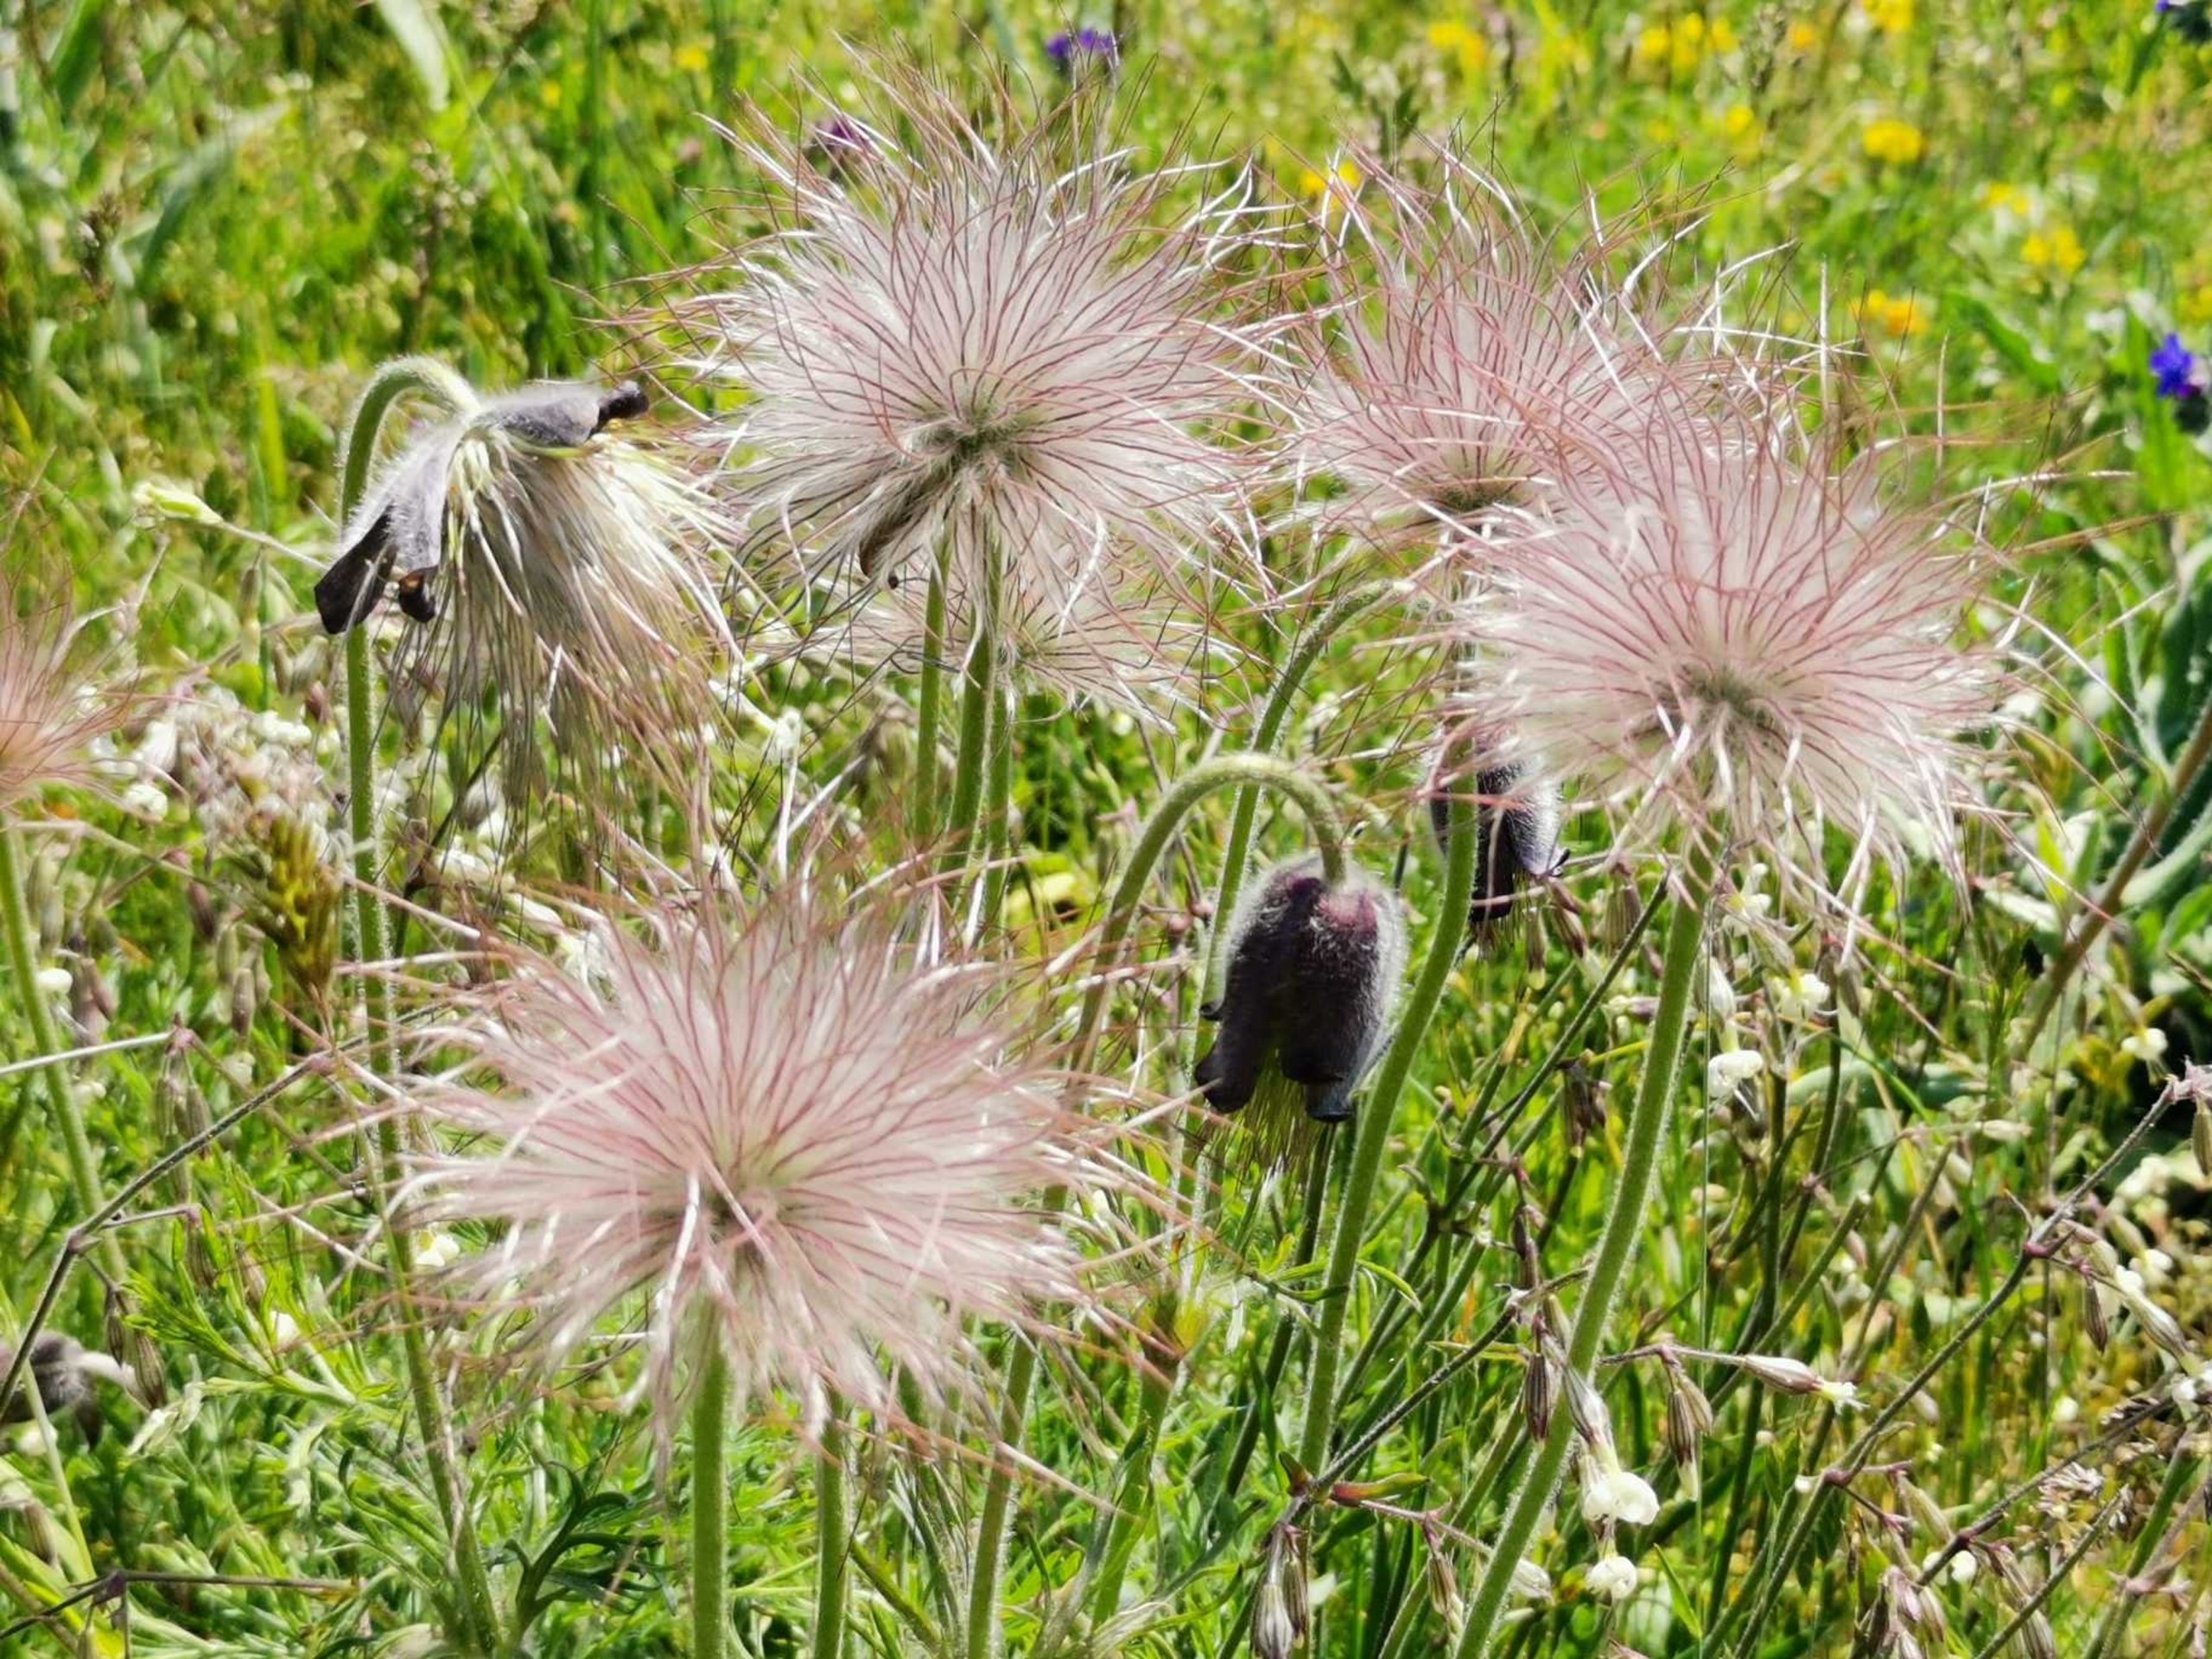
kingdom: Plantae
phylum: Tracheophyta
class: Magnoliopsida
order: Ranunculales
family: Ranunculaceae
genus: Pulsatilla
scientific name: Pulsatilla pratensis
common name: Nikkende kobjælde
